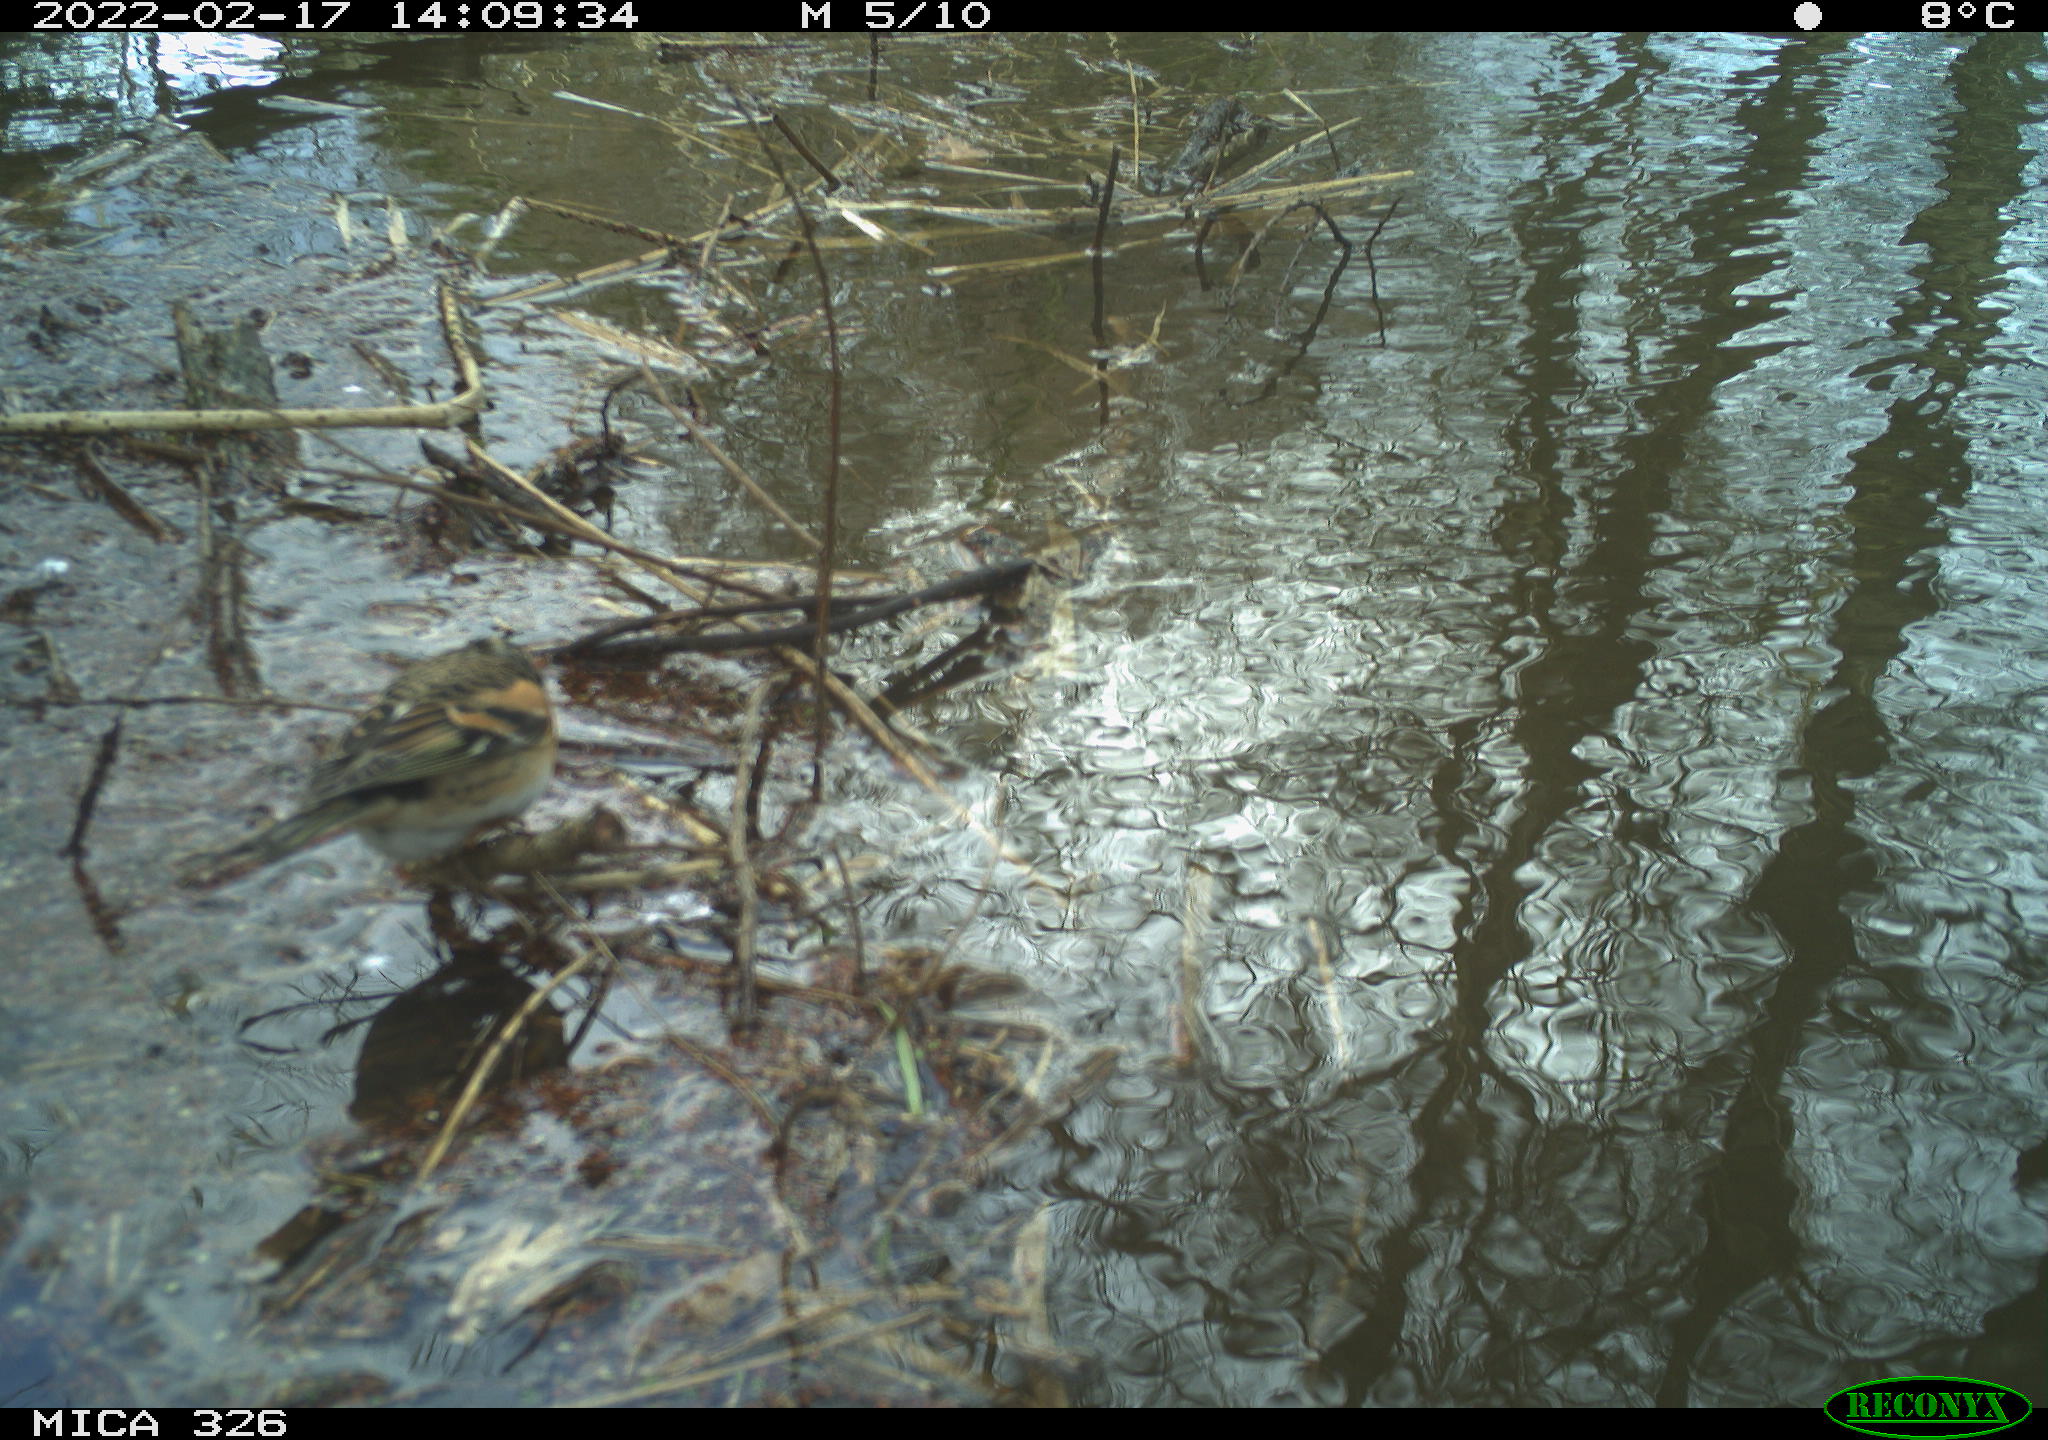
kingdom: Animalia
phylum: Chordata
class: Aves
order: Passeriformes
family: Fringillidae
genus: Fringilla
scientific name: Fringilla montifringilla
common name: Brambling
